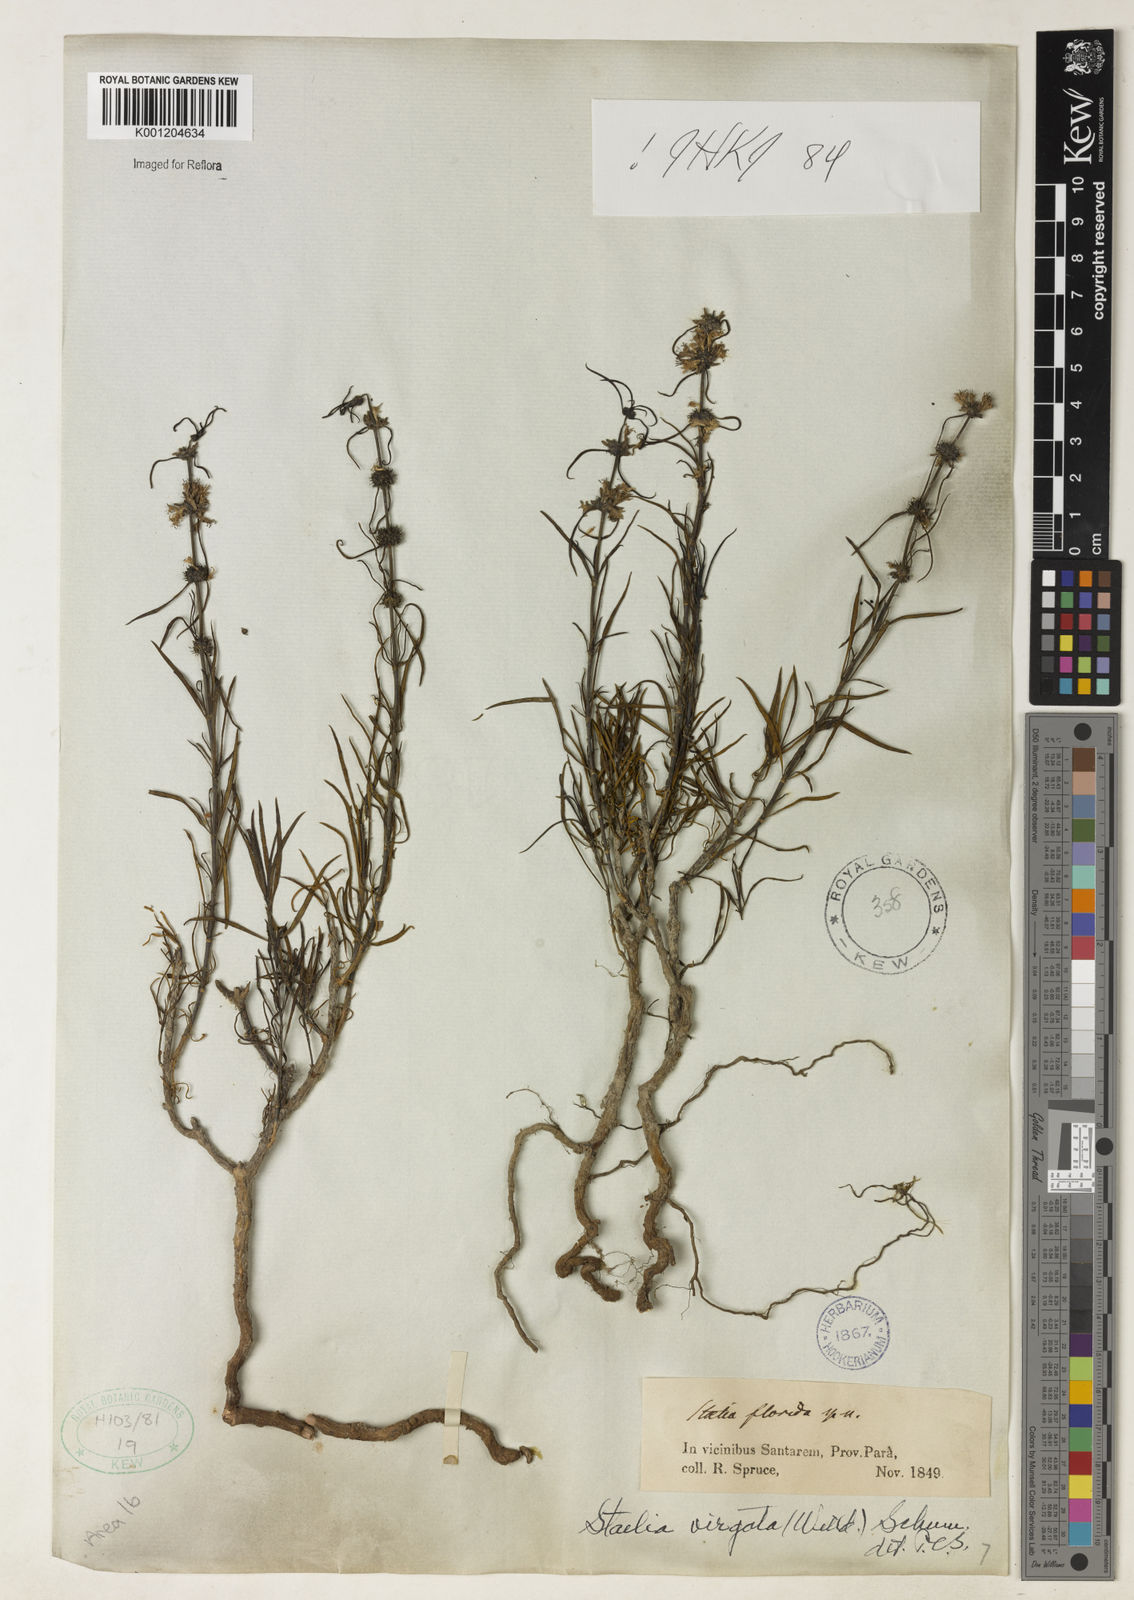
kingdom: Plantae
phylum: Tracheophyta
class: Magnoliopsida
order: Gentianales
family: Rubiaceae
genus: Staelia
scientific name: Staelia virgata
